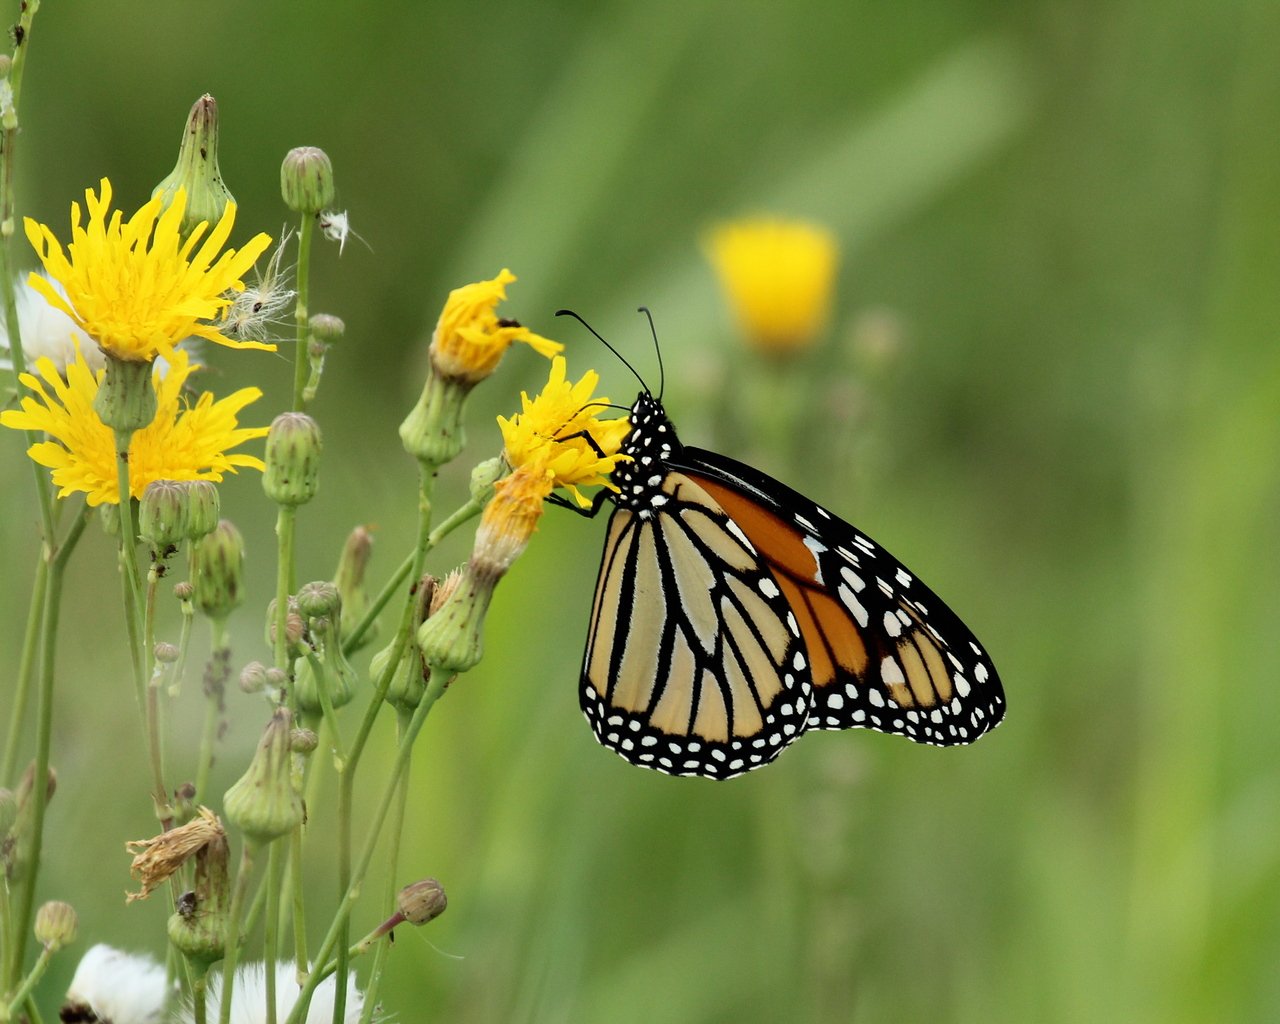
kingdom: Animalia
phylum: Arthropoda
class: Insecta
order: Lepidoptera
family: Nymphalidae
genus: Danaus
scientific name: Danaus plexippus
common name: Monarch
